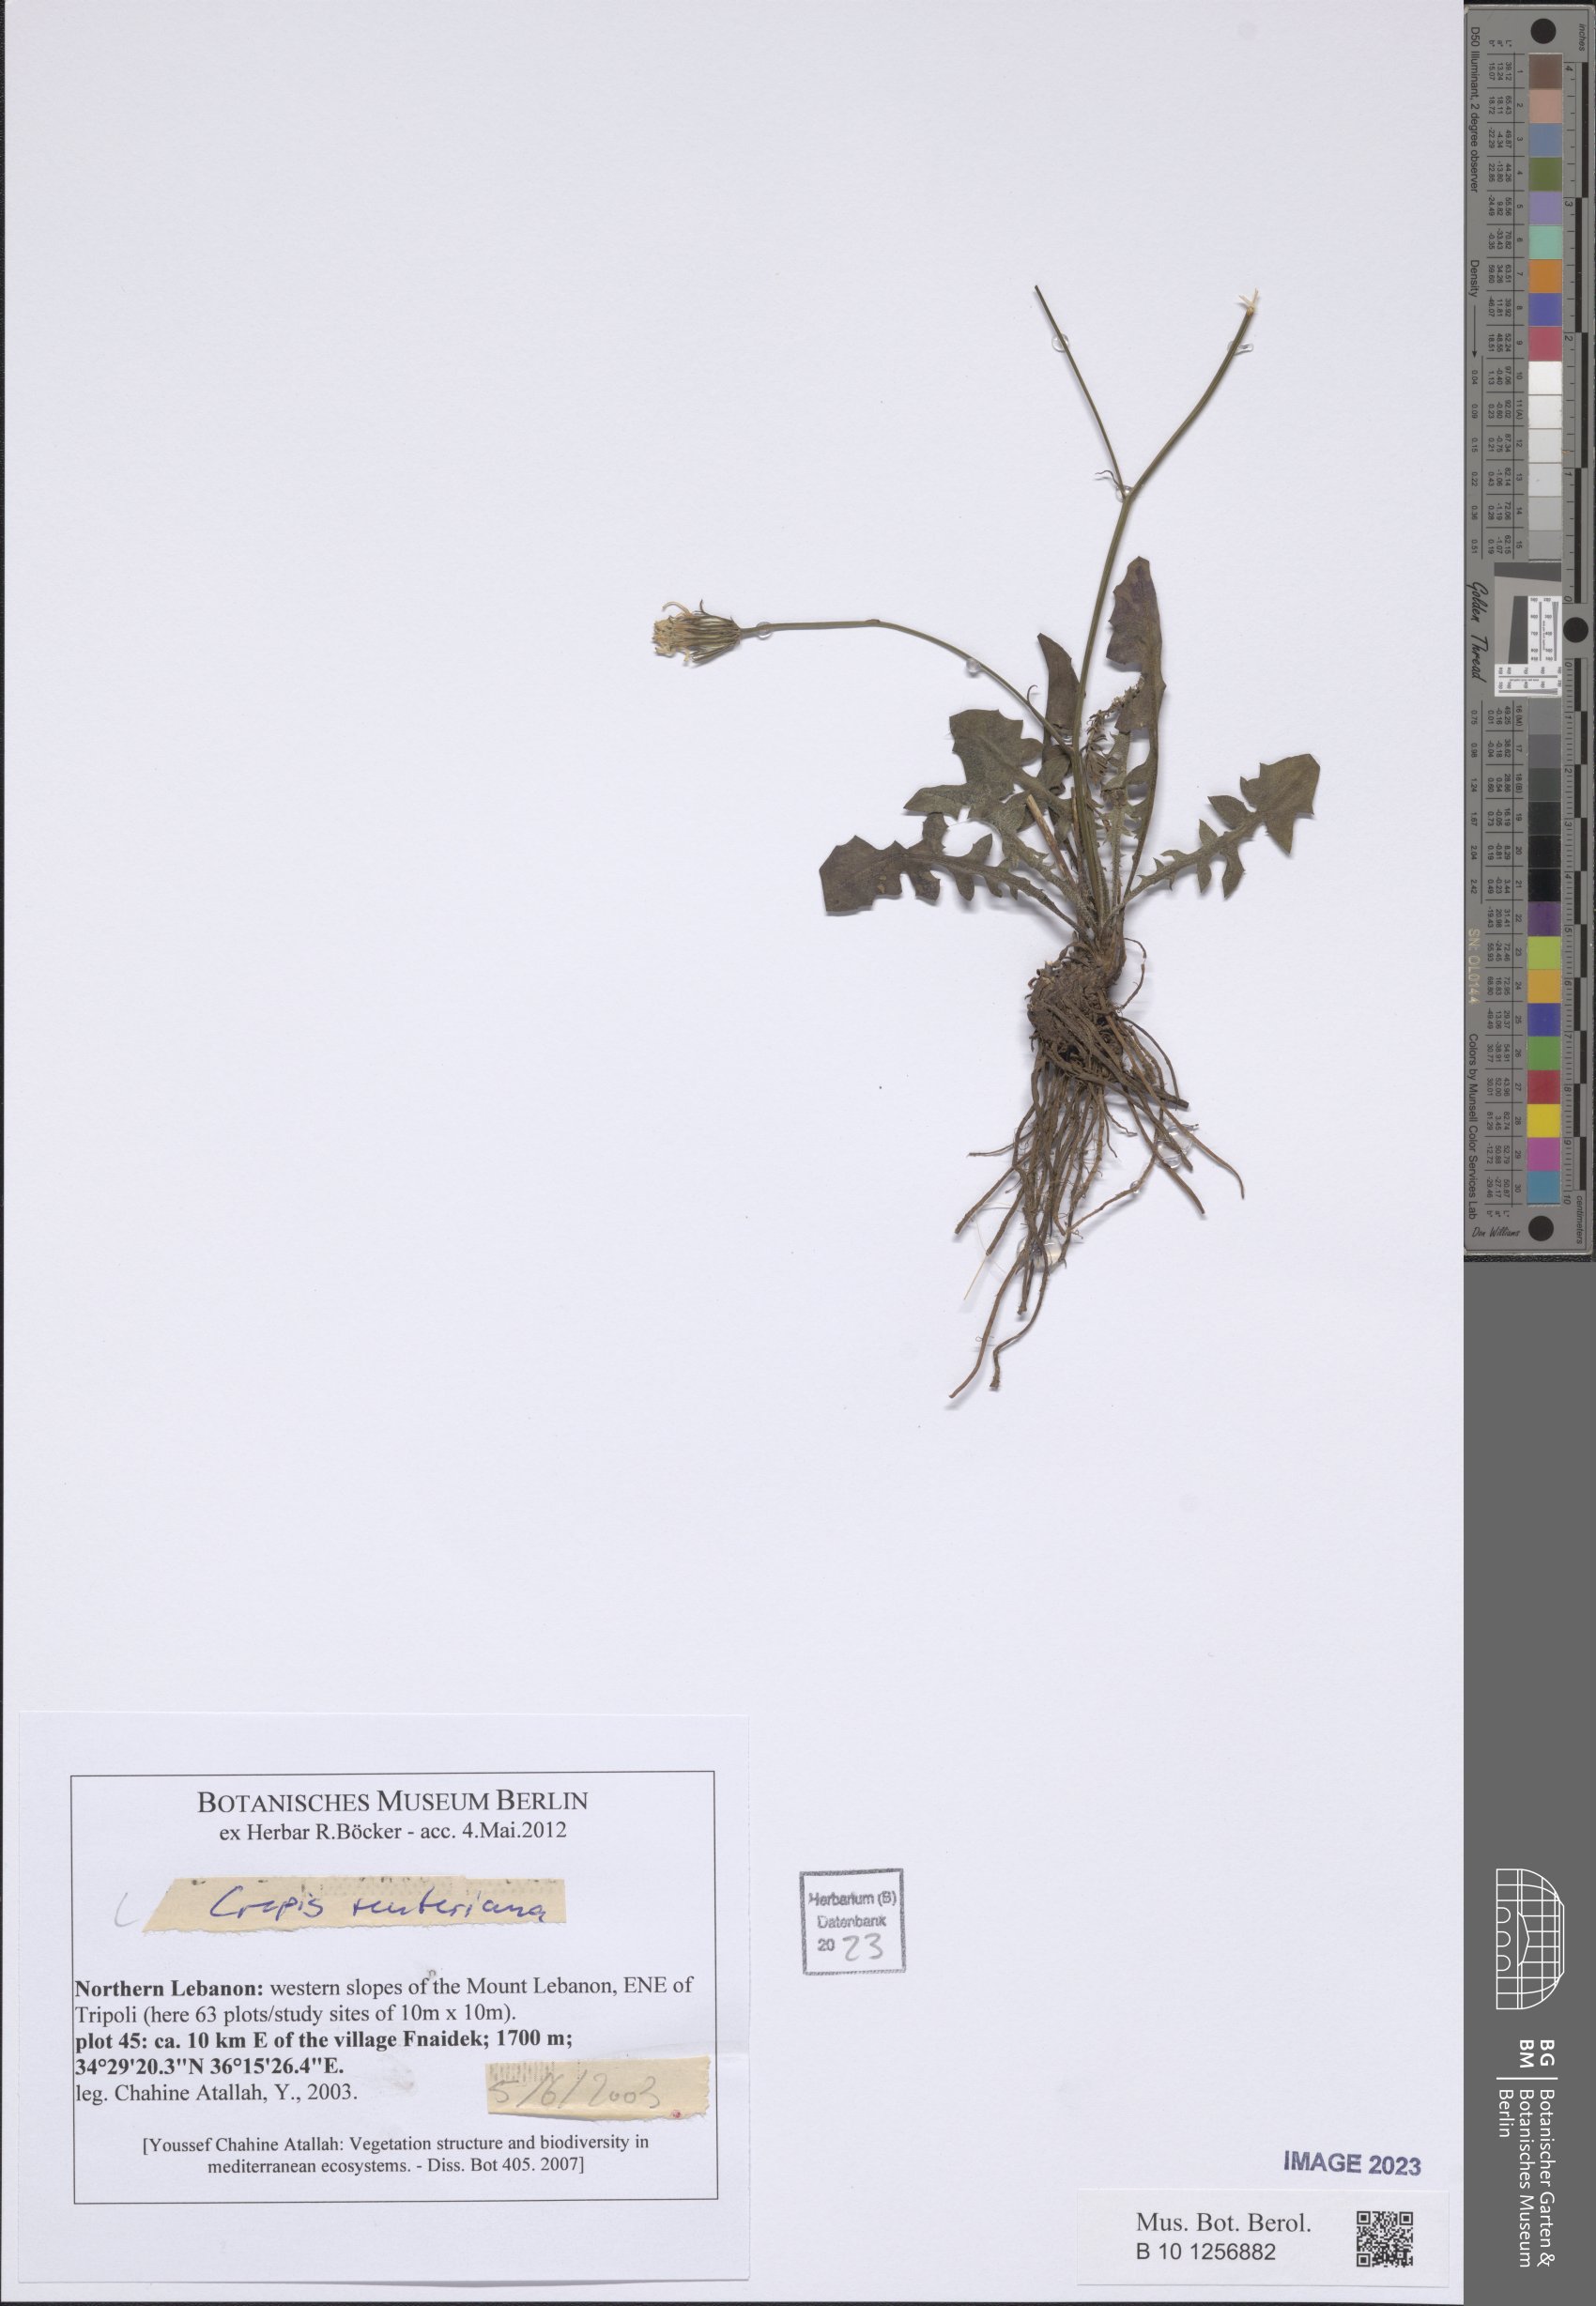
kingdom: Plantae
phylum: Tracheophyta
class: Magnoliopsida
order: Asterales
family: Asteraceae
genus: Crepis
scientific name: Crepis reuteriana
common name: Hawk's-beard
